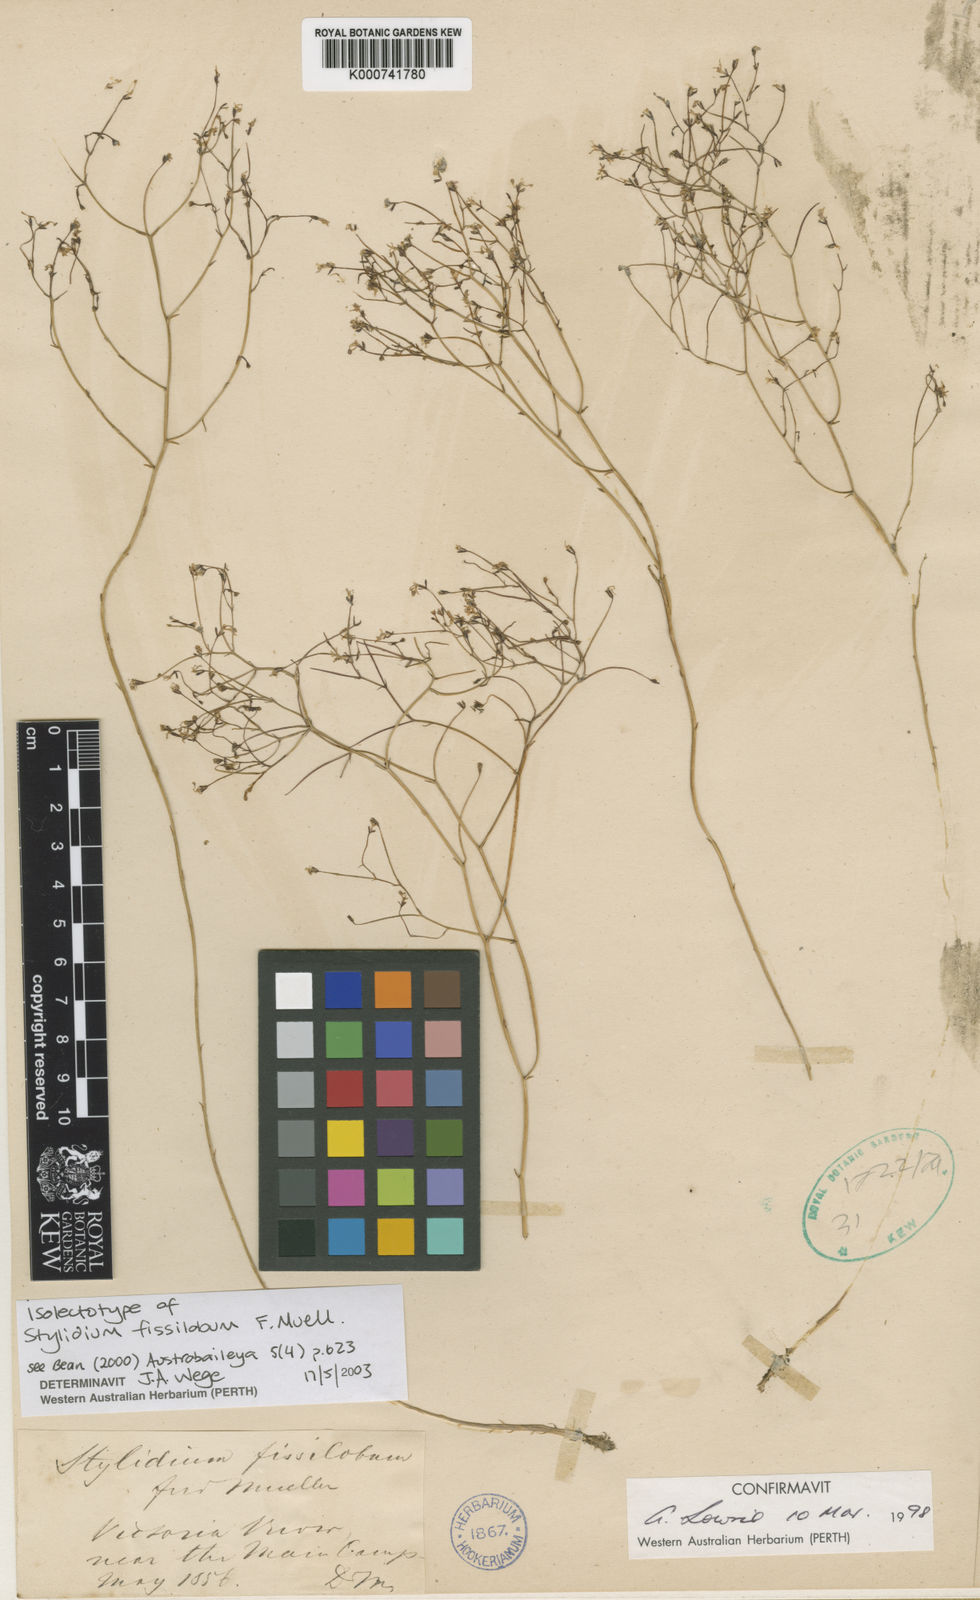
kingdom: Plantae
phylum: Tracheophyta
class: Magnoliopsida
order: Asterales
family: Stylidiaceae
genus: Stylidium
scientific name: Stylidium fissilobium
